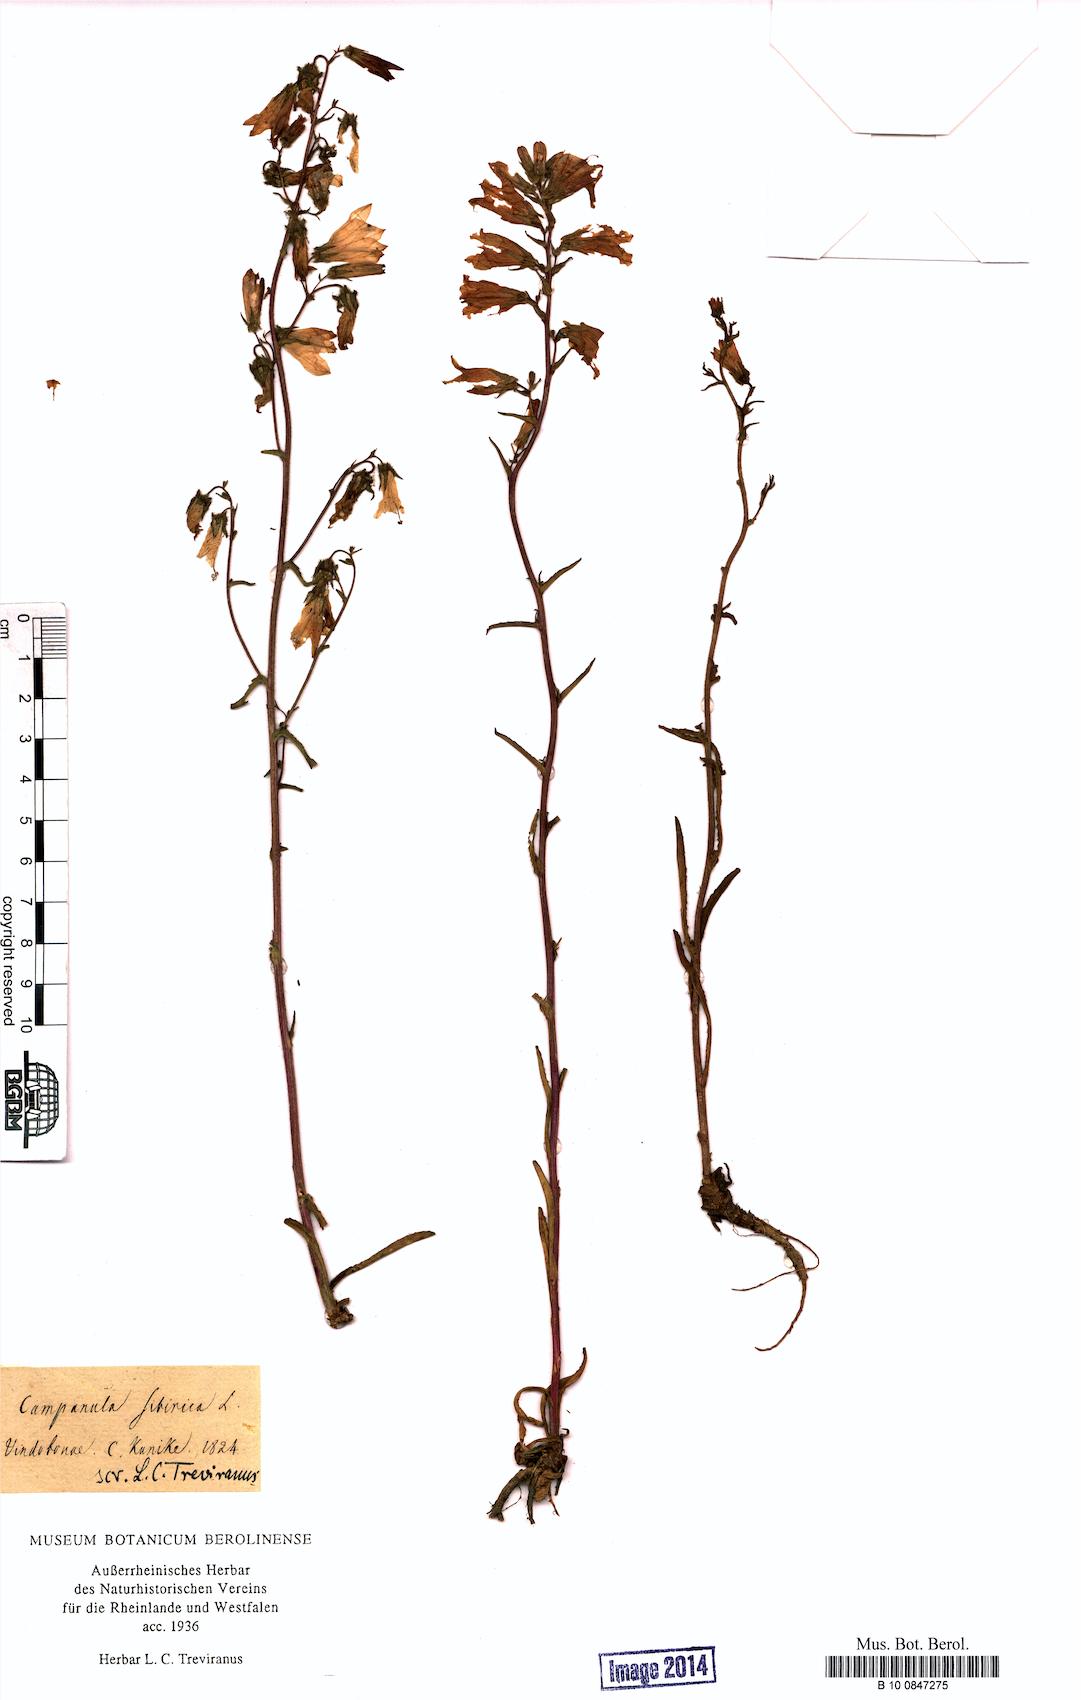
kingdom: Plantae
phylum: Tracheophyta
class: Magnoliopsida
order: Asterales
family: Campanulaceae
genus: Campanula
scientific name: Campanula sibirica
